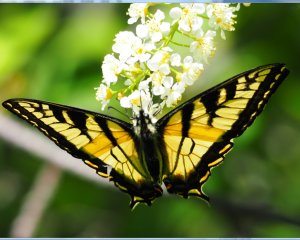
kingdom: Animalia
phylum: Arthropoda
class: Insecta
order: Lepidoptera
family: Papilionidae
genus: Pterourus
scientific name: Pterourus canadensis
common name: Canadian Tiger Swallowtail
